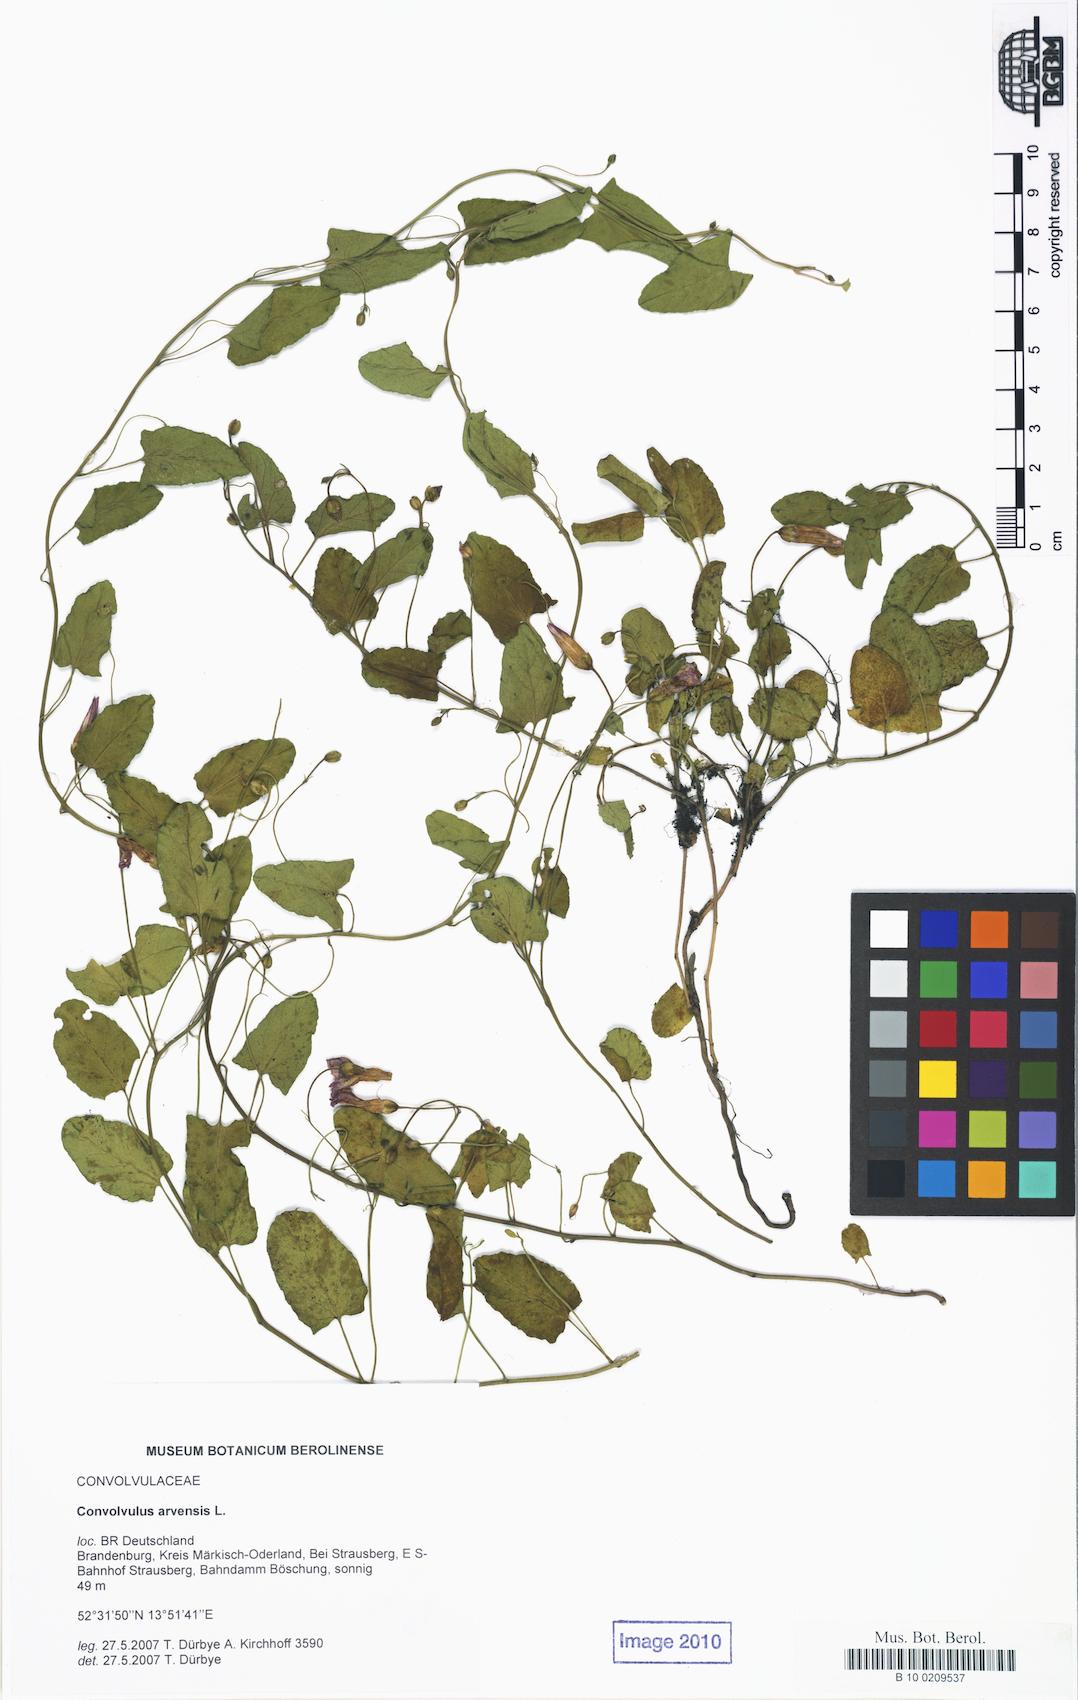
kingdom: Plantae
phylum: Tracheophyta
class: Magnoliopsida
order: Solanales
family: Convolvulaceae
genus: Convolvulus
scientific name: Convolvulus arvensis
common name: Field bindweed
